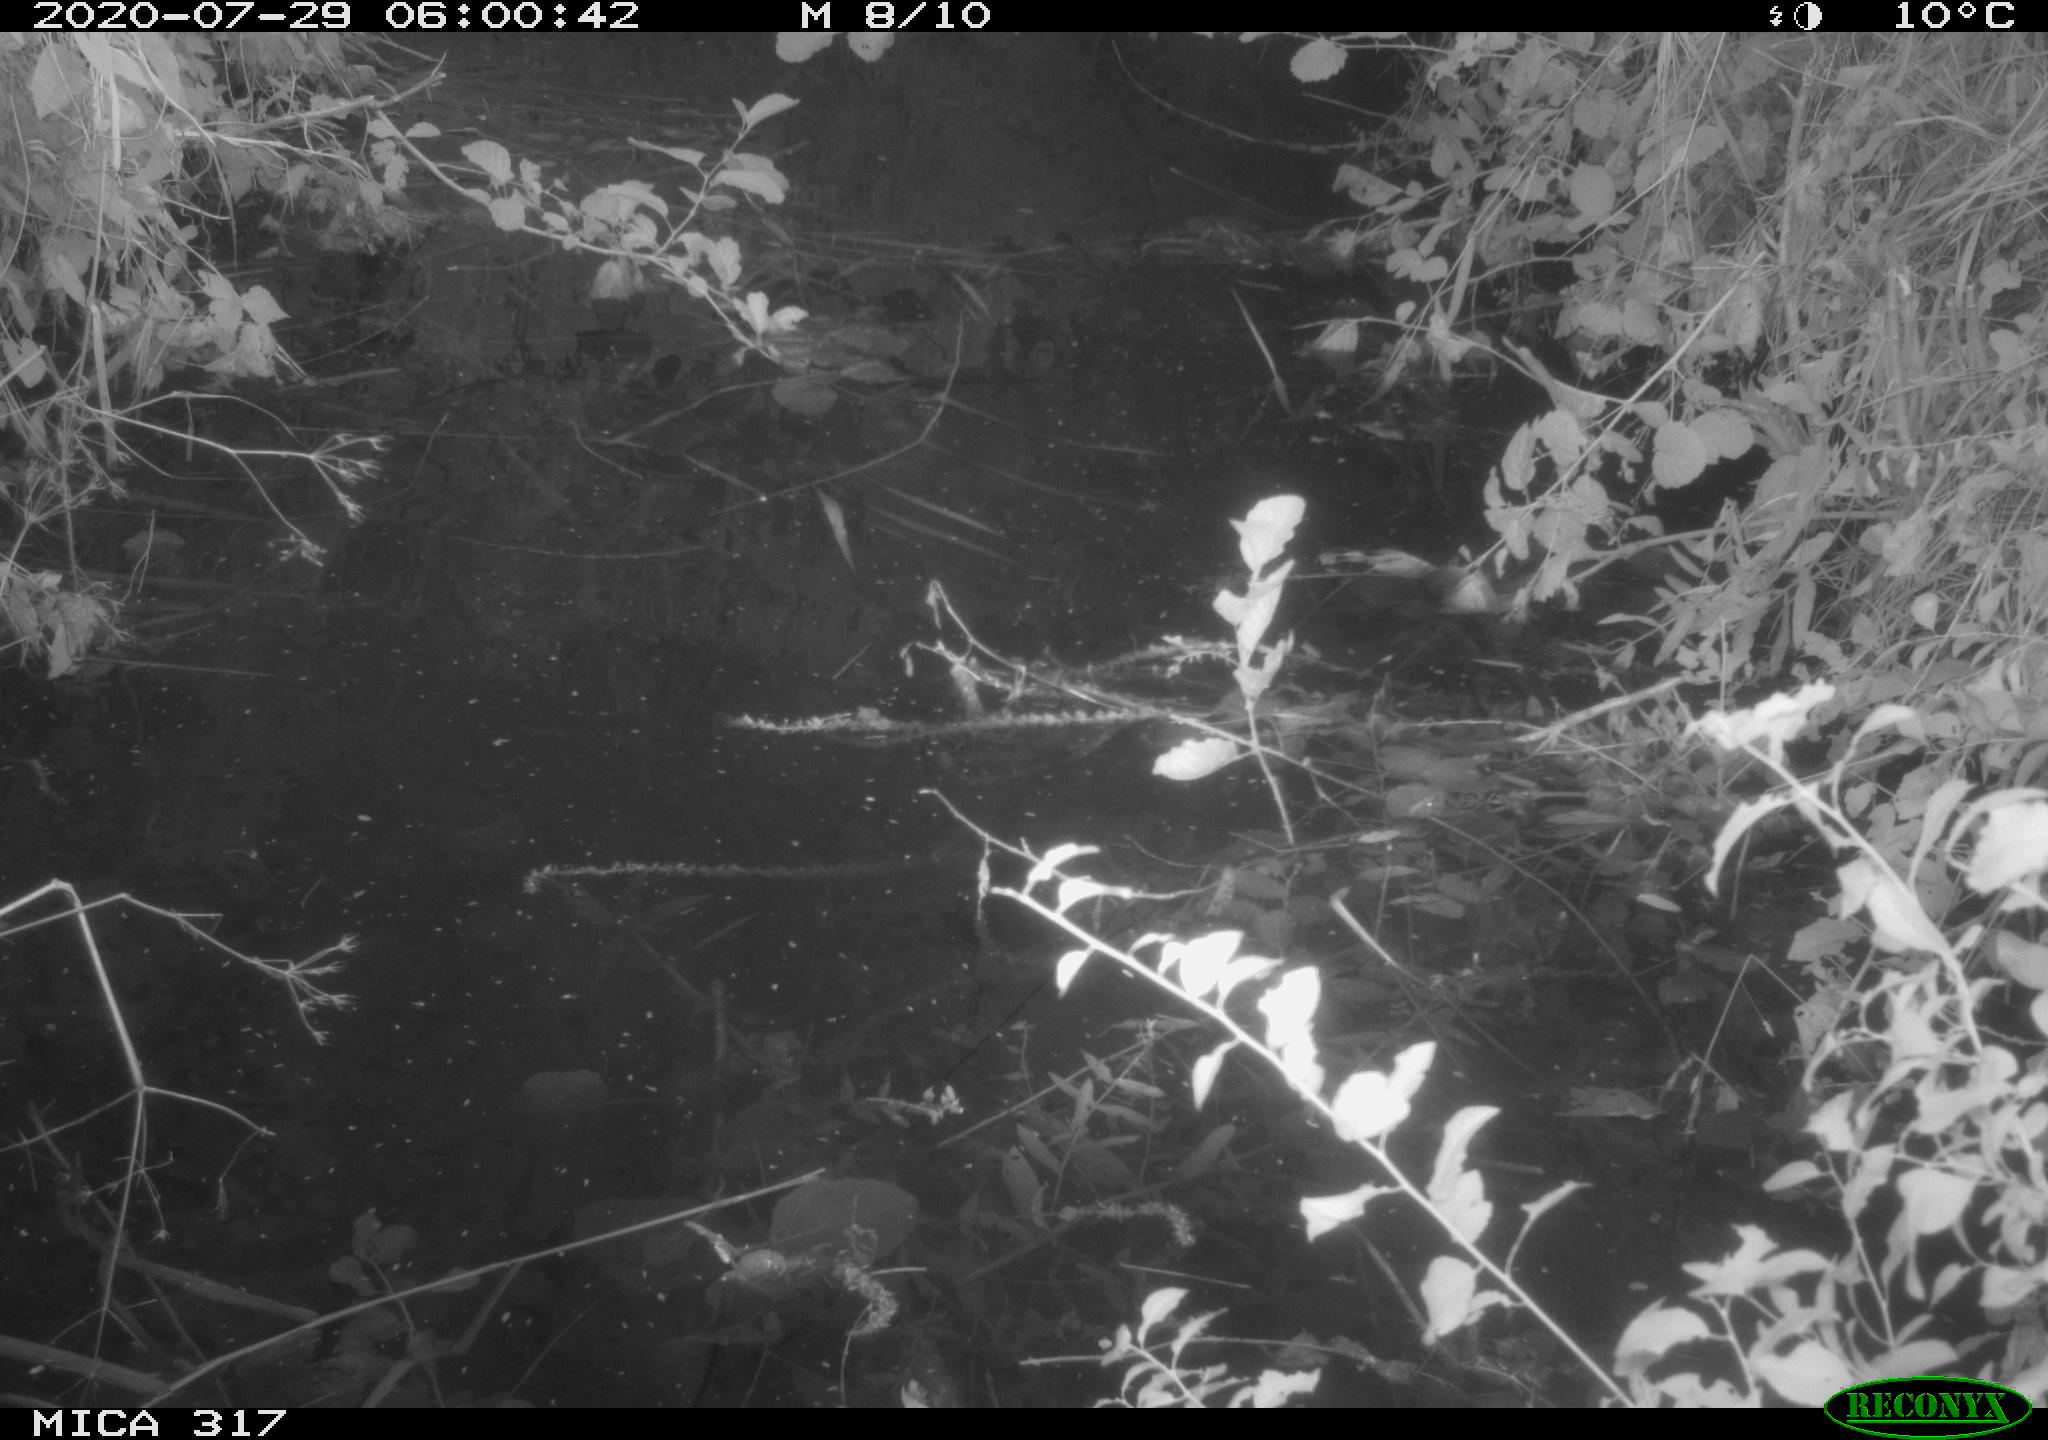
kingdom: Animalia
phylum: Chordata
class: Aves
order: Anseriformes
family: Anatidae
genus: Anas
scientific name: Anas platyrhynchos
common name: Mallard
